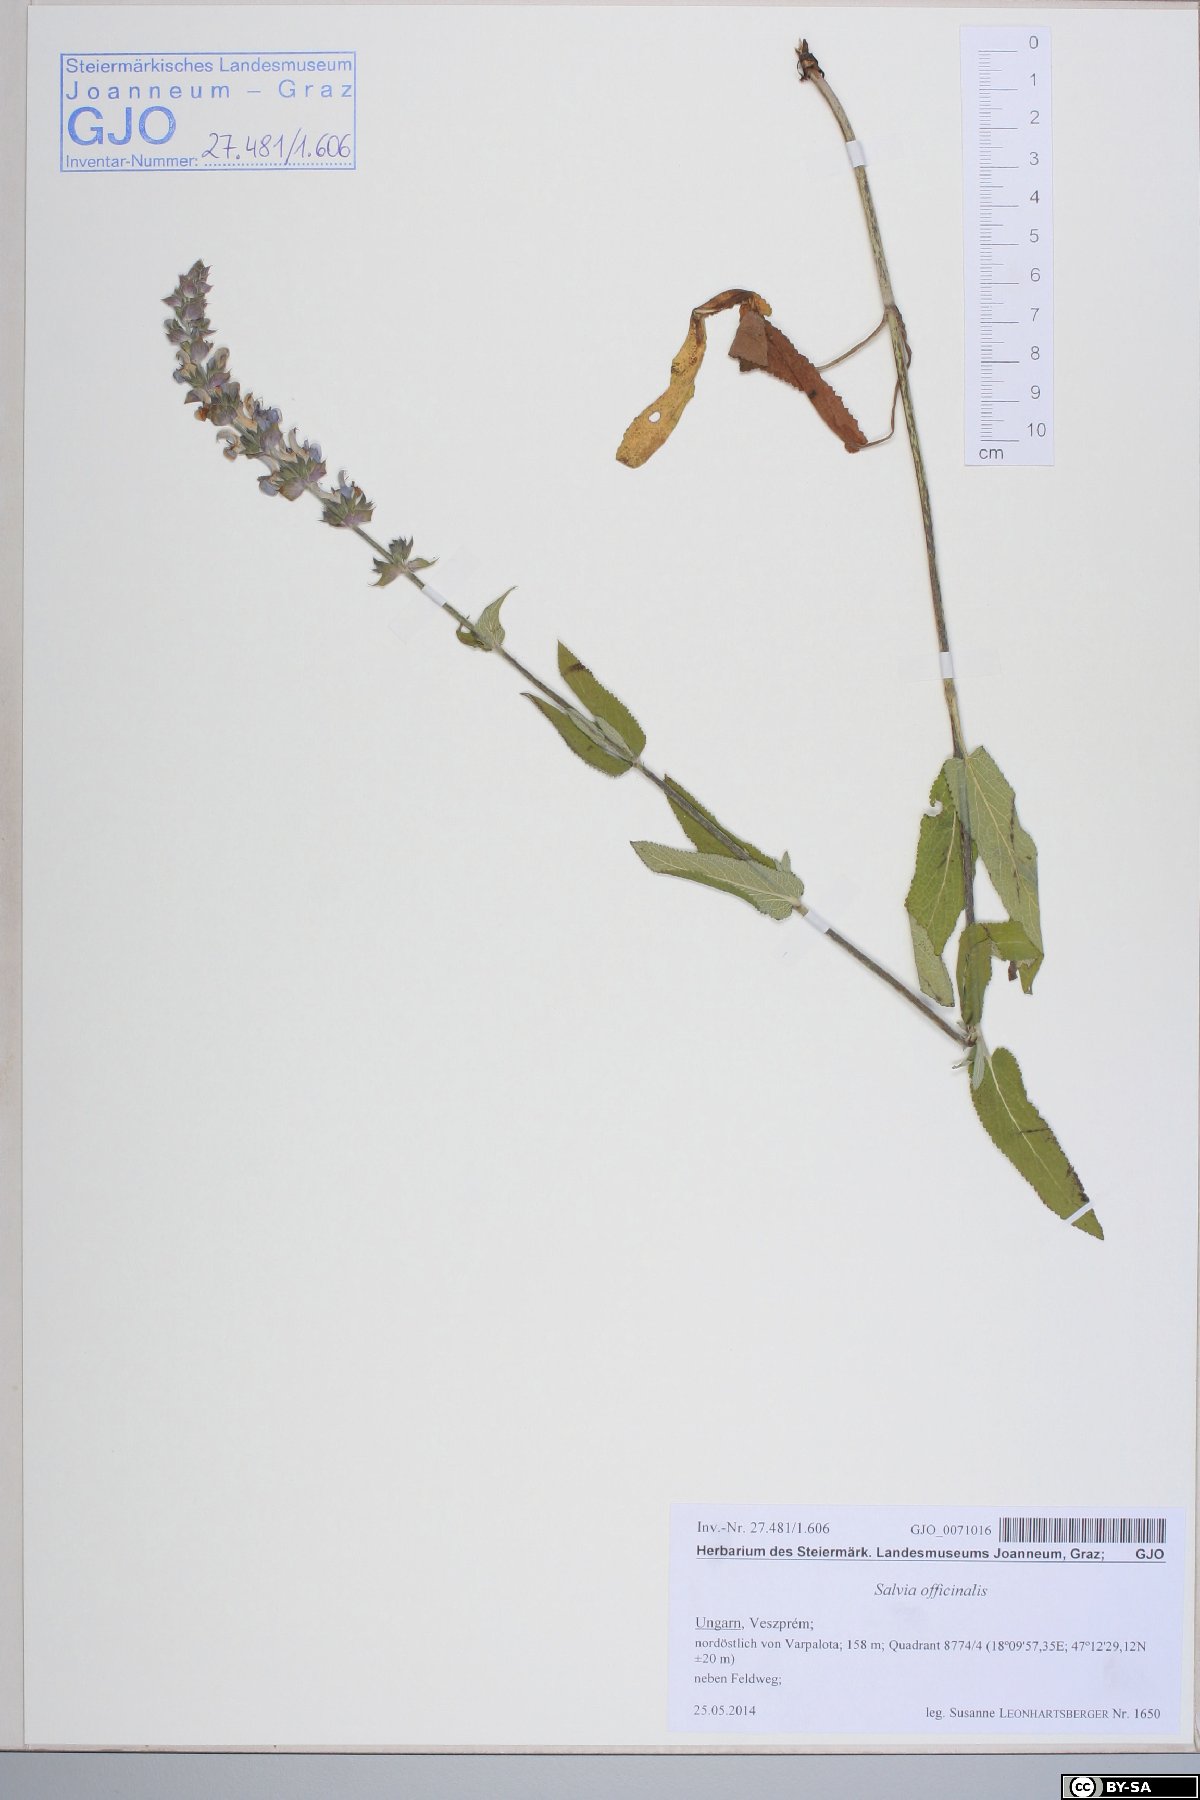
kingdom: Plantae
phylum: Tracheophyta
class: Magnoliopsida
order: Lamiales
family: Lamiaceae
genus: Salvia
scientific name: Salvia officinalis
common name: Sage
